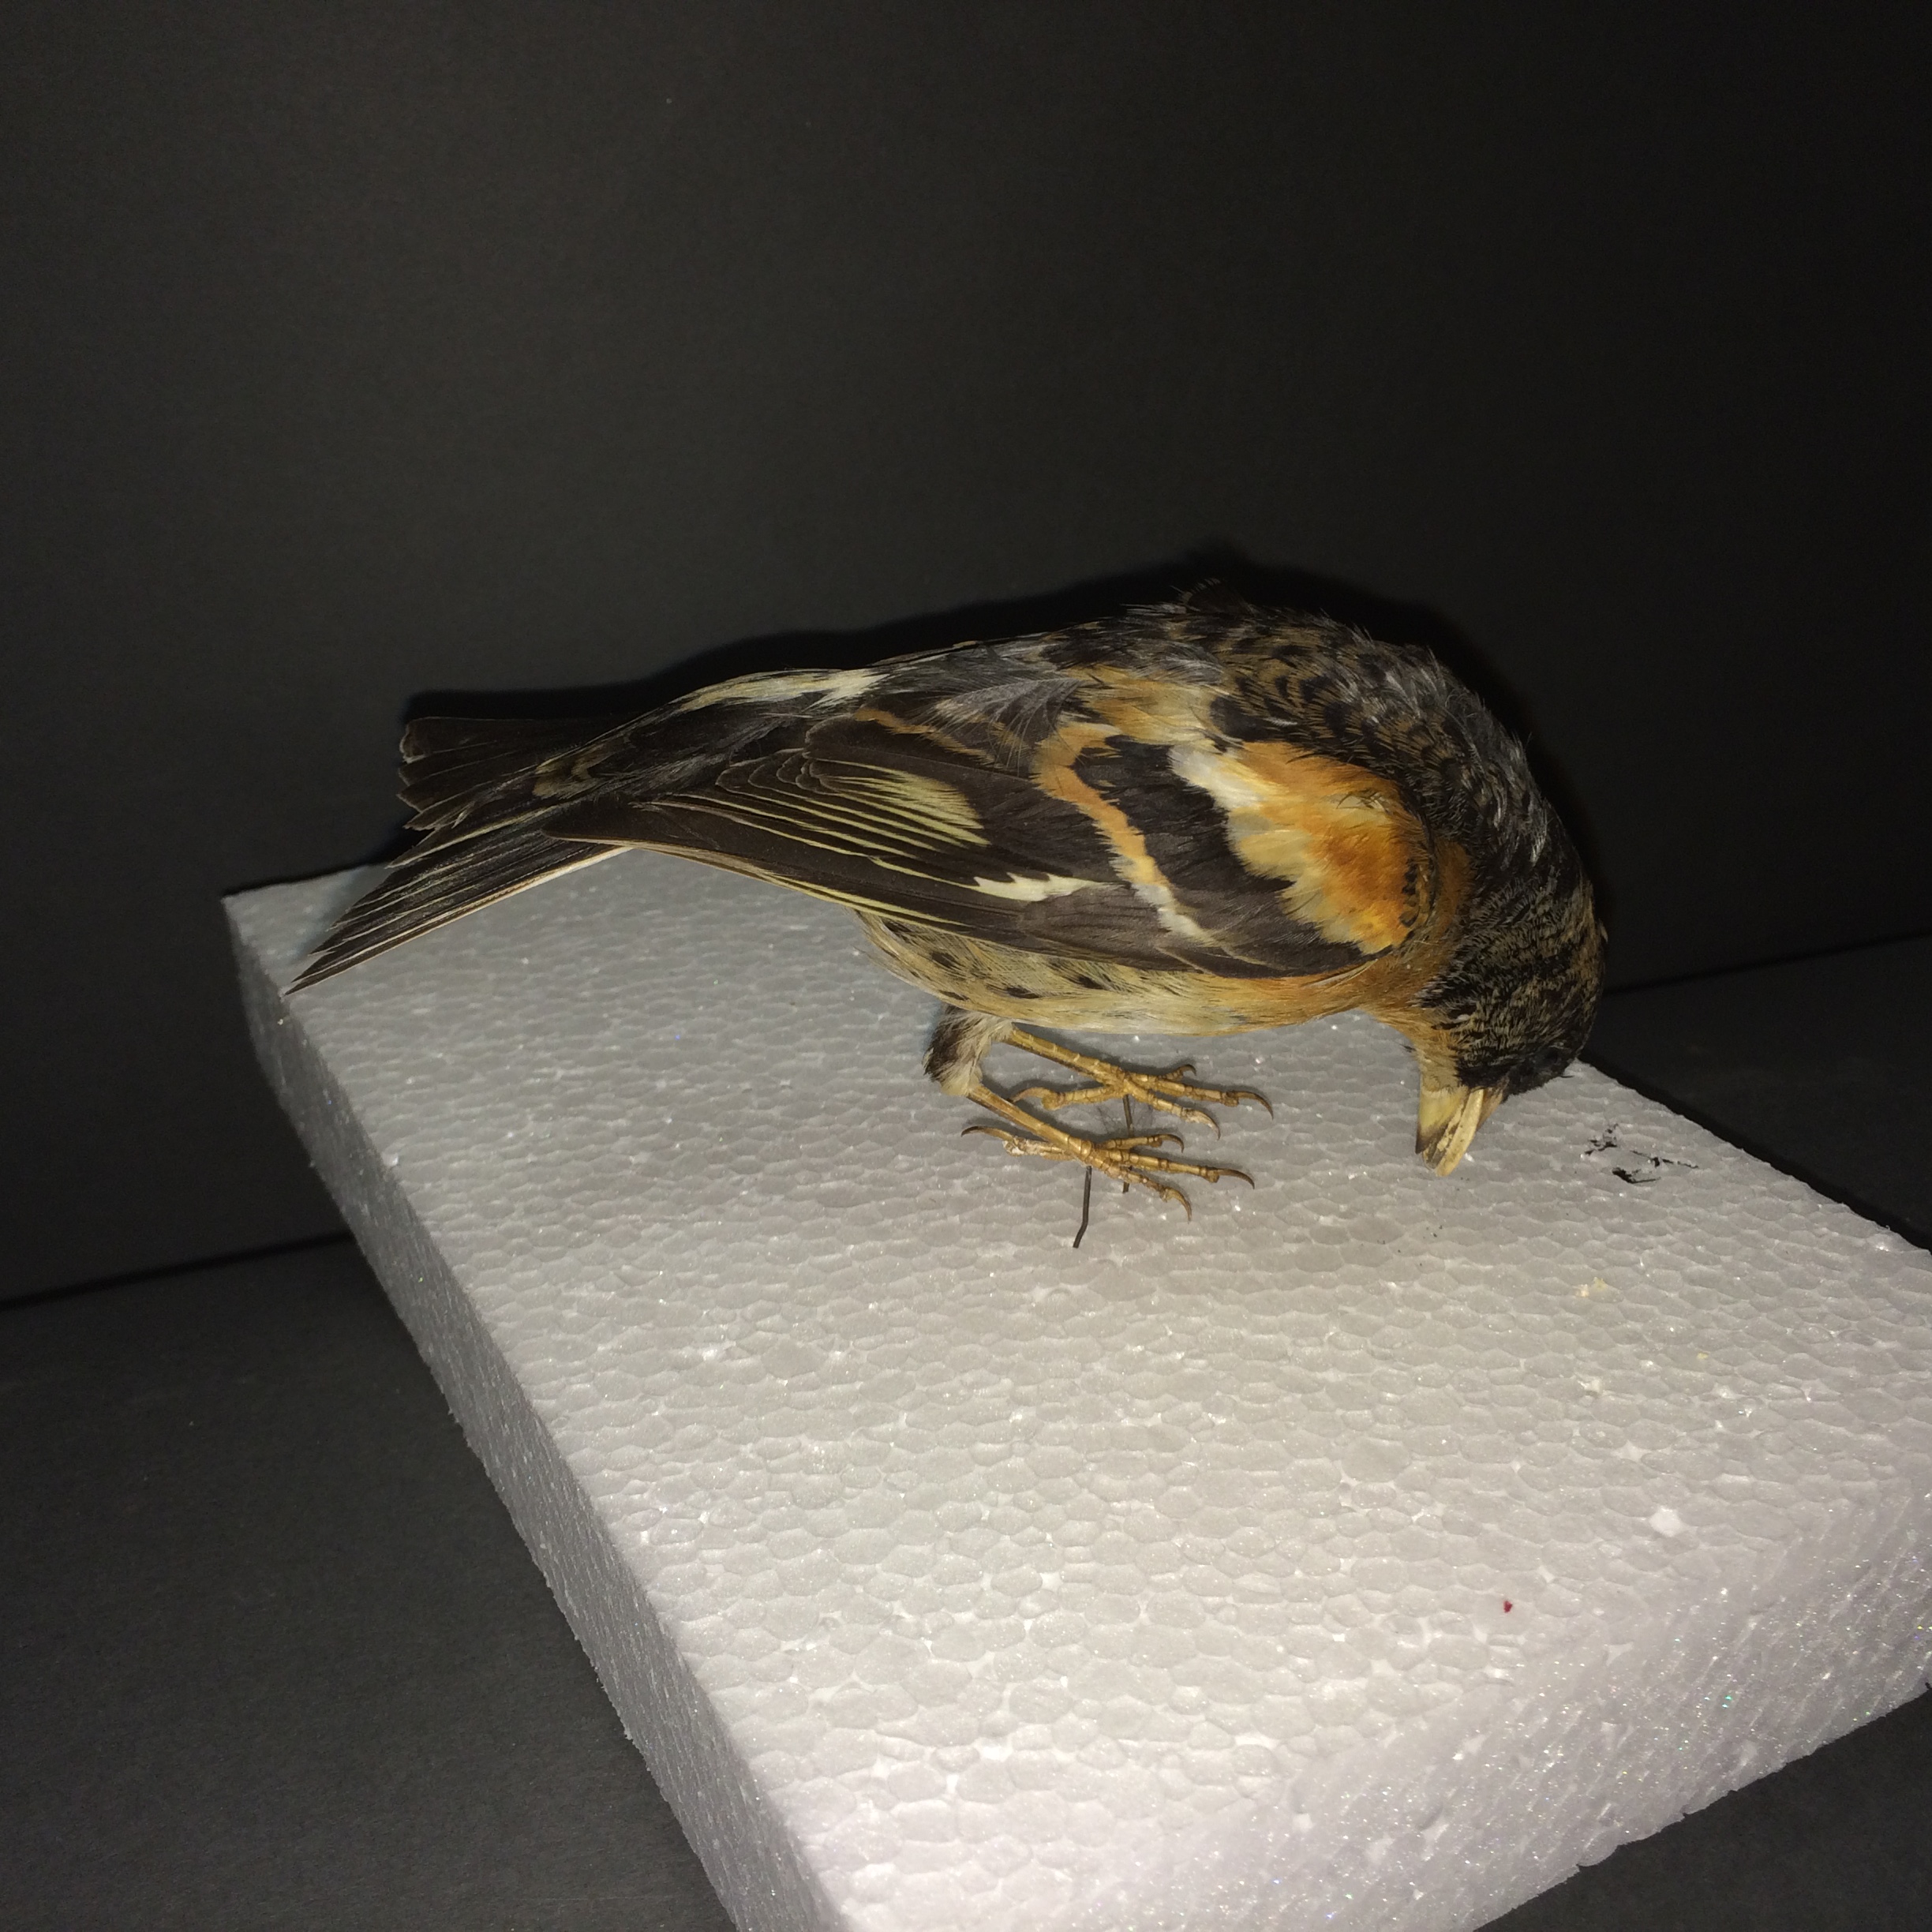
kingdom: Animalia
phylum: Chordata
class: Aves
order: Passeriformes
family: Fringillidae
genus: Fringilla
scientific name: Fringilla montifringilla
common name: Brambling
